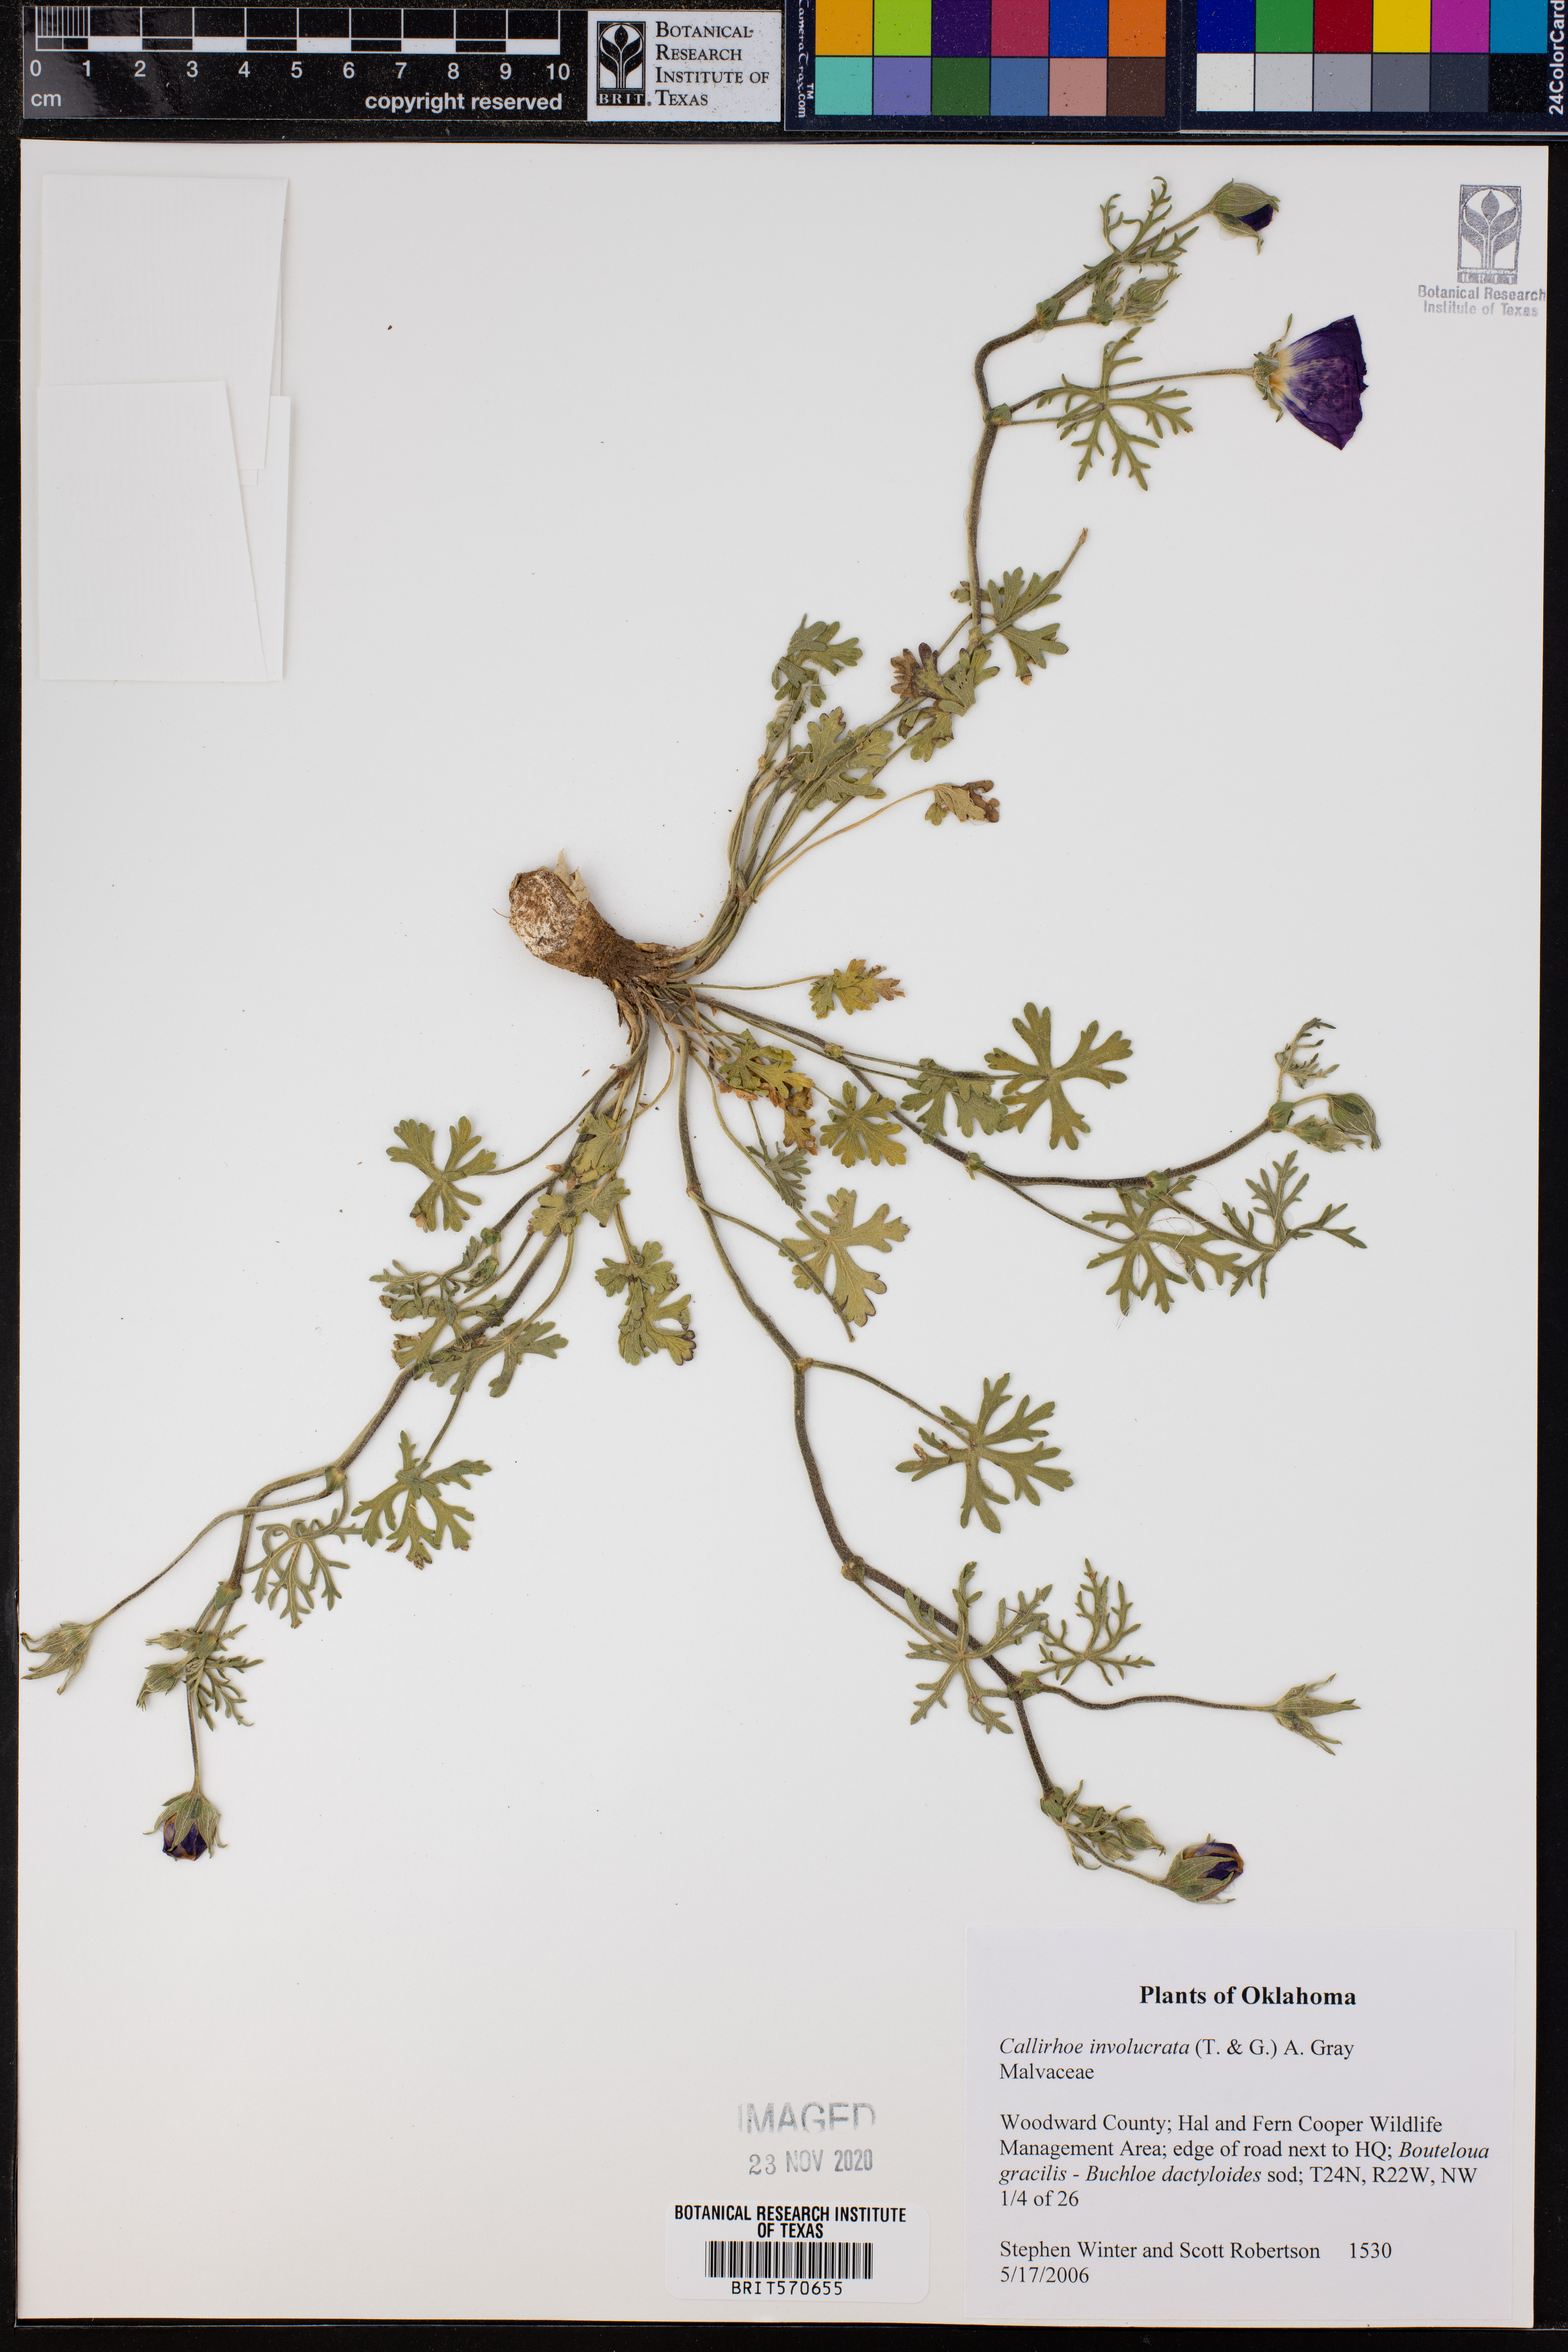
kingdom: Plantae
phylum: Tracheophyta
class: Magnoliopsida
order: Malvales
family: Malvaceae
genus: Callirhoe
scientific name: Callirhoe involucrata
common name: Purple poppy-mallow
